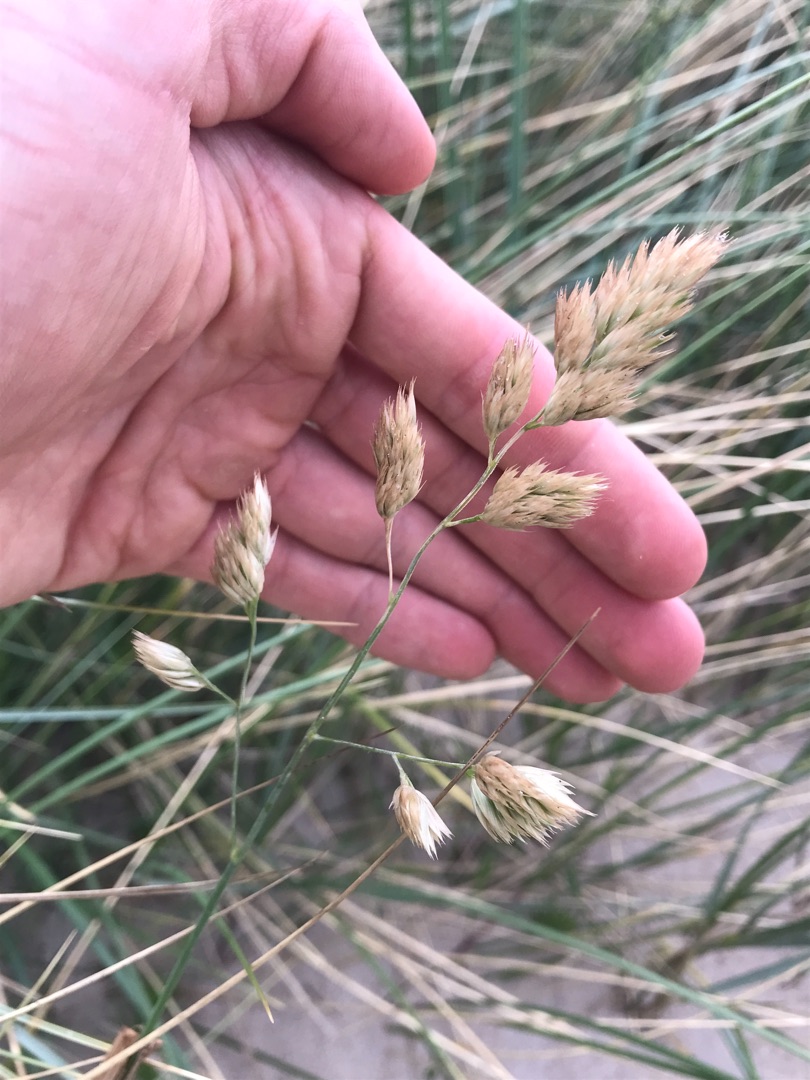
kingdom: Plantae
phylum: Tracheophyta
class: Liliopsida
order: Poales
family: Poaceae
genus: Dactylis
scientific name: Dactylis glomerata
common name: Almindelig hundegræs
